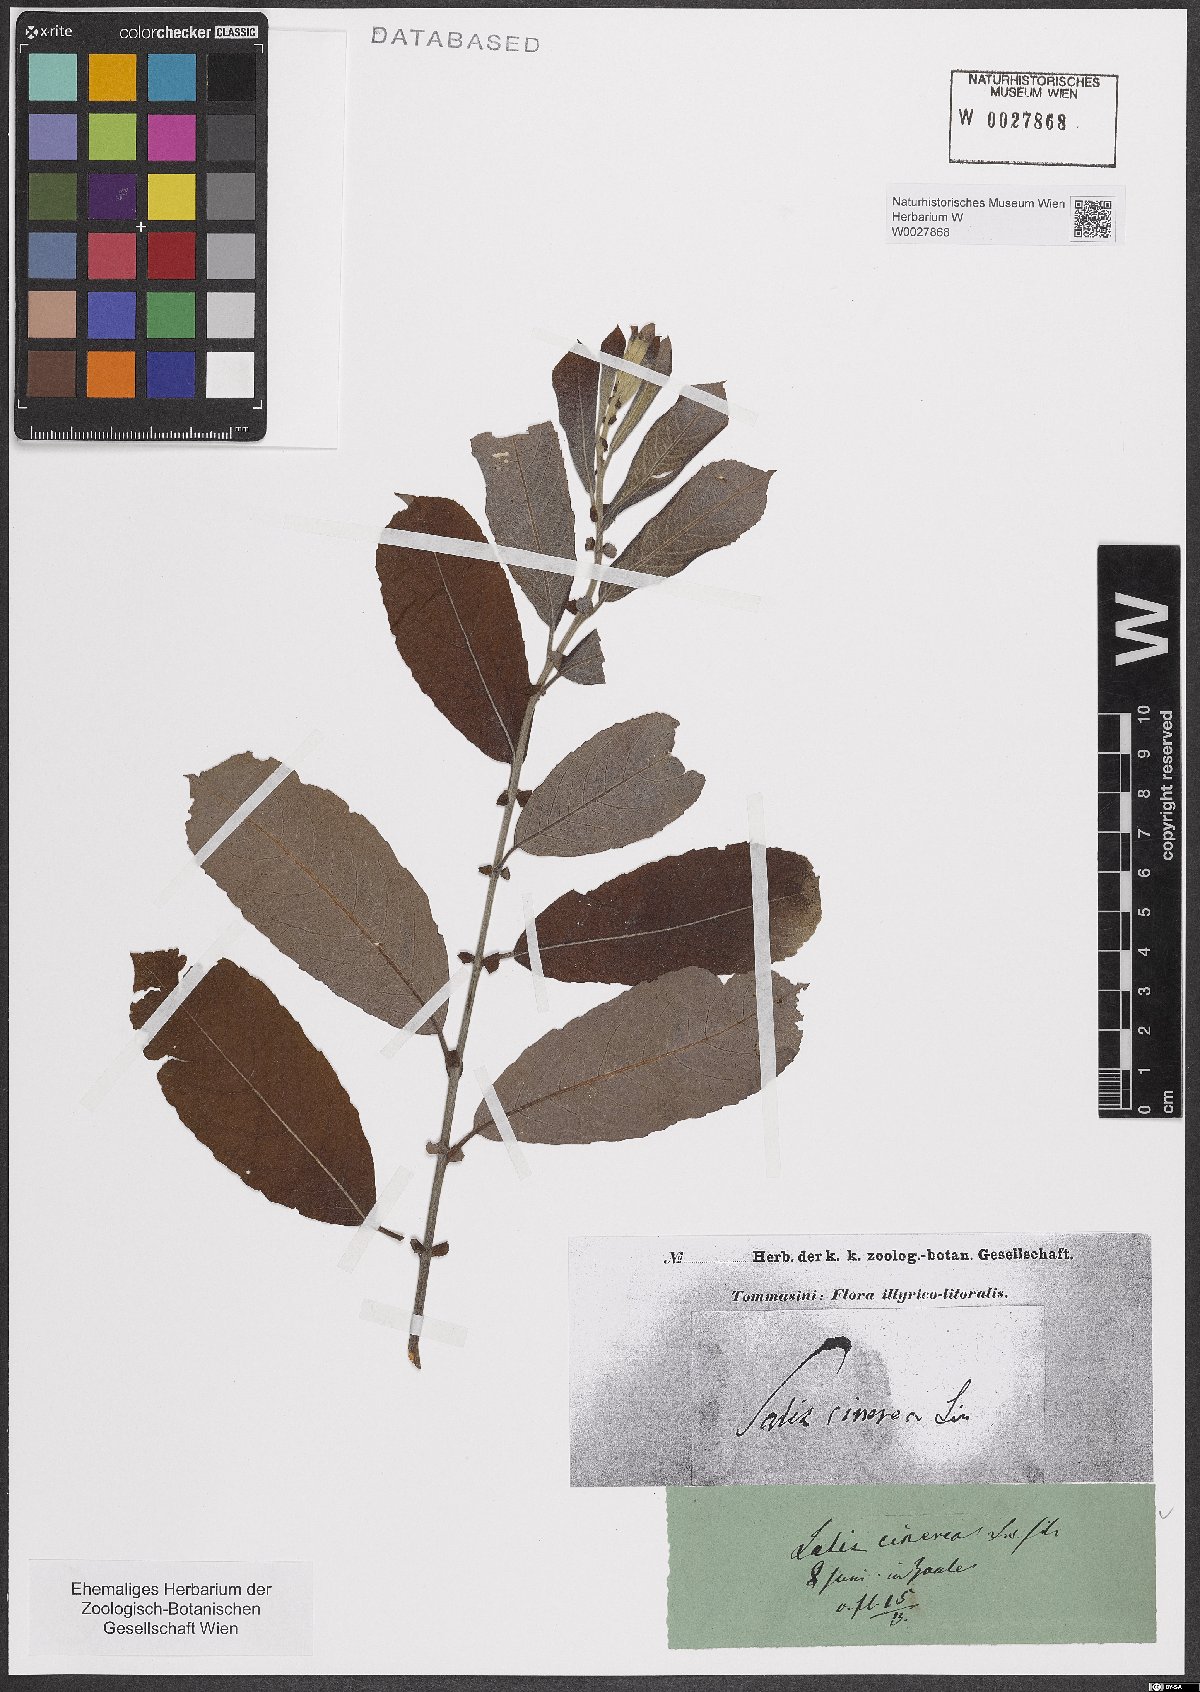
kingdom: Plantae
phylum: Tracheophyta
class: Magnoliopsida
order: Malpighiales
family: Salicaceae
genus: Salix
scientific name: Salix cinerea
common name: Common sallow
